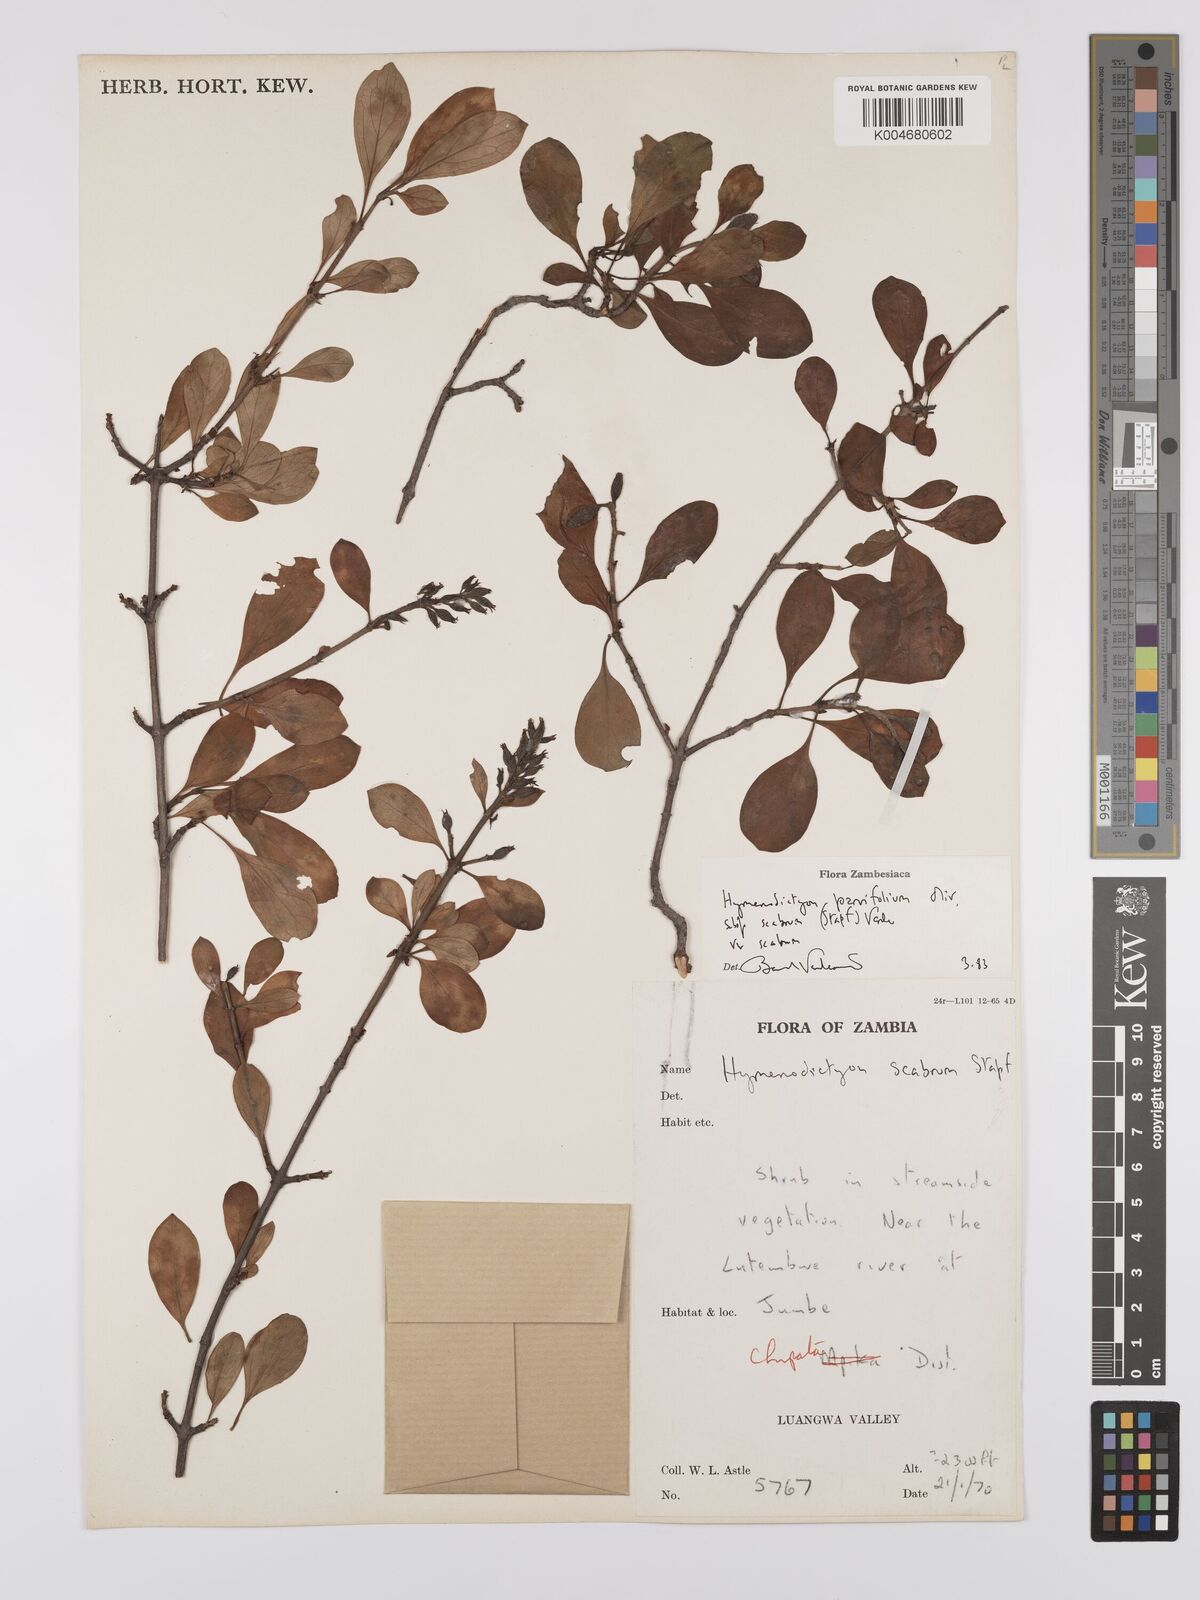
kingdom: Plantae
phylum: Tracheophyta
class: Magnoliopsida
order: Gentianales
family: Rubiaceae
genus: Hymenodictyon
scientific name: Hymenodictyon scabrum
